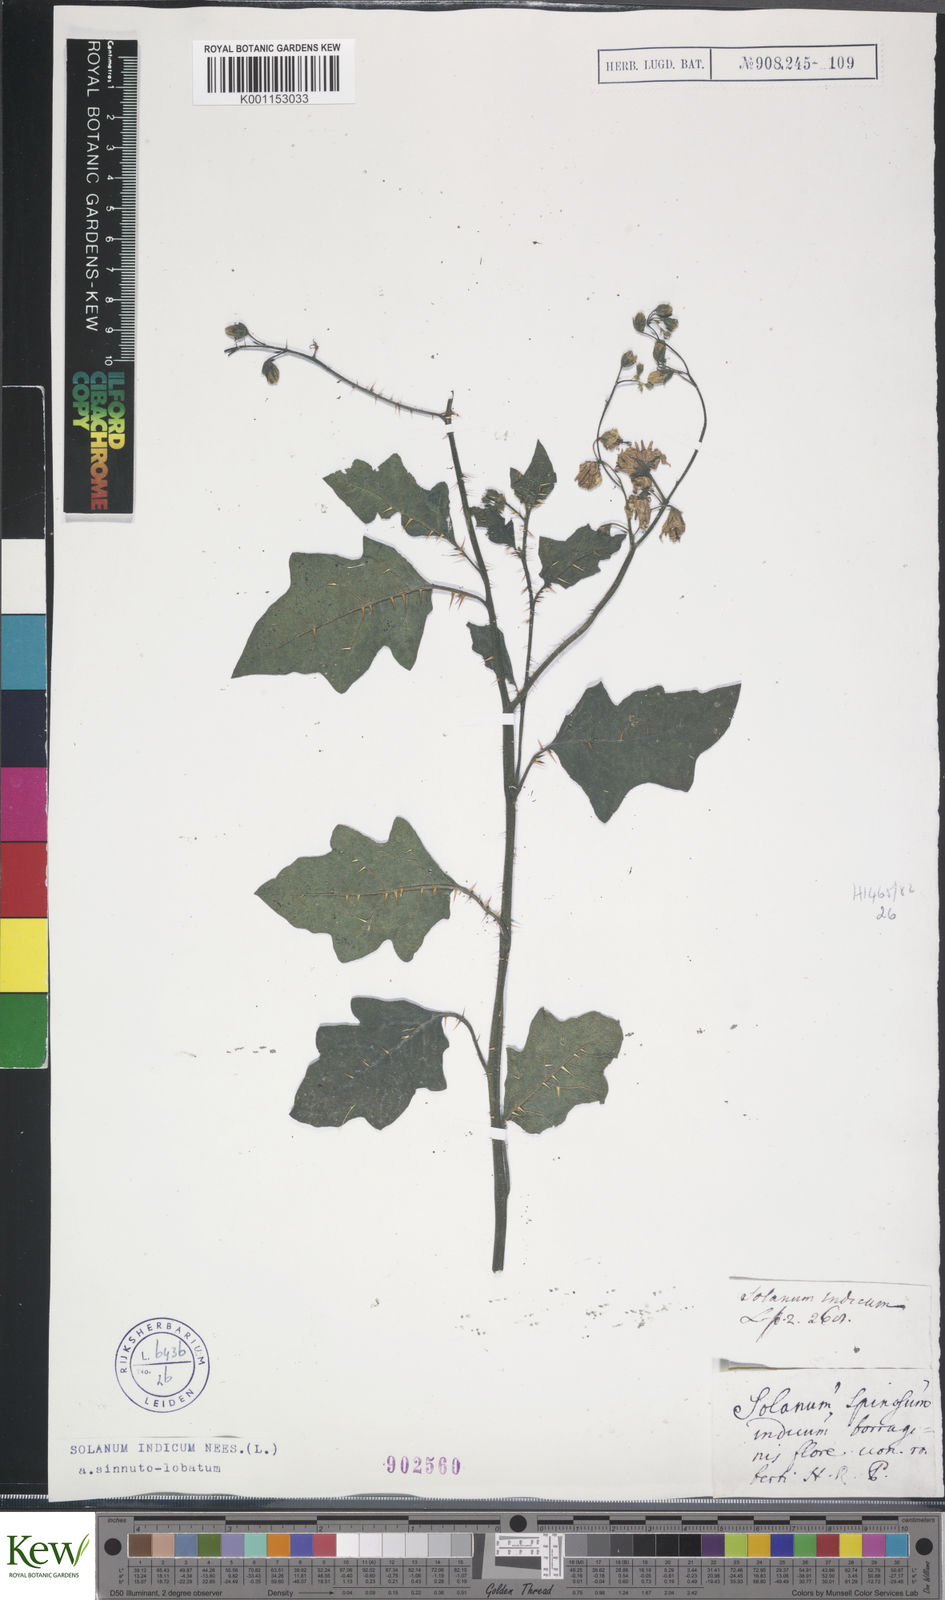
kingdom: Plantae
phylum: Tracheophyta
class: Magnoliopsida
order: Solanales
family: Solanaceae
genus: Solanum
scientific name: Solanum violaceum
